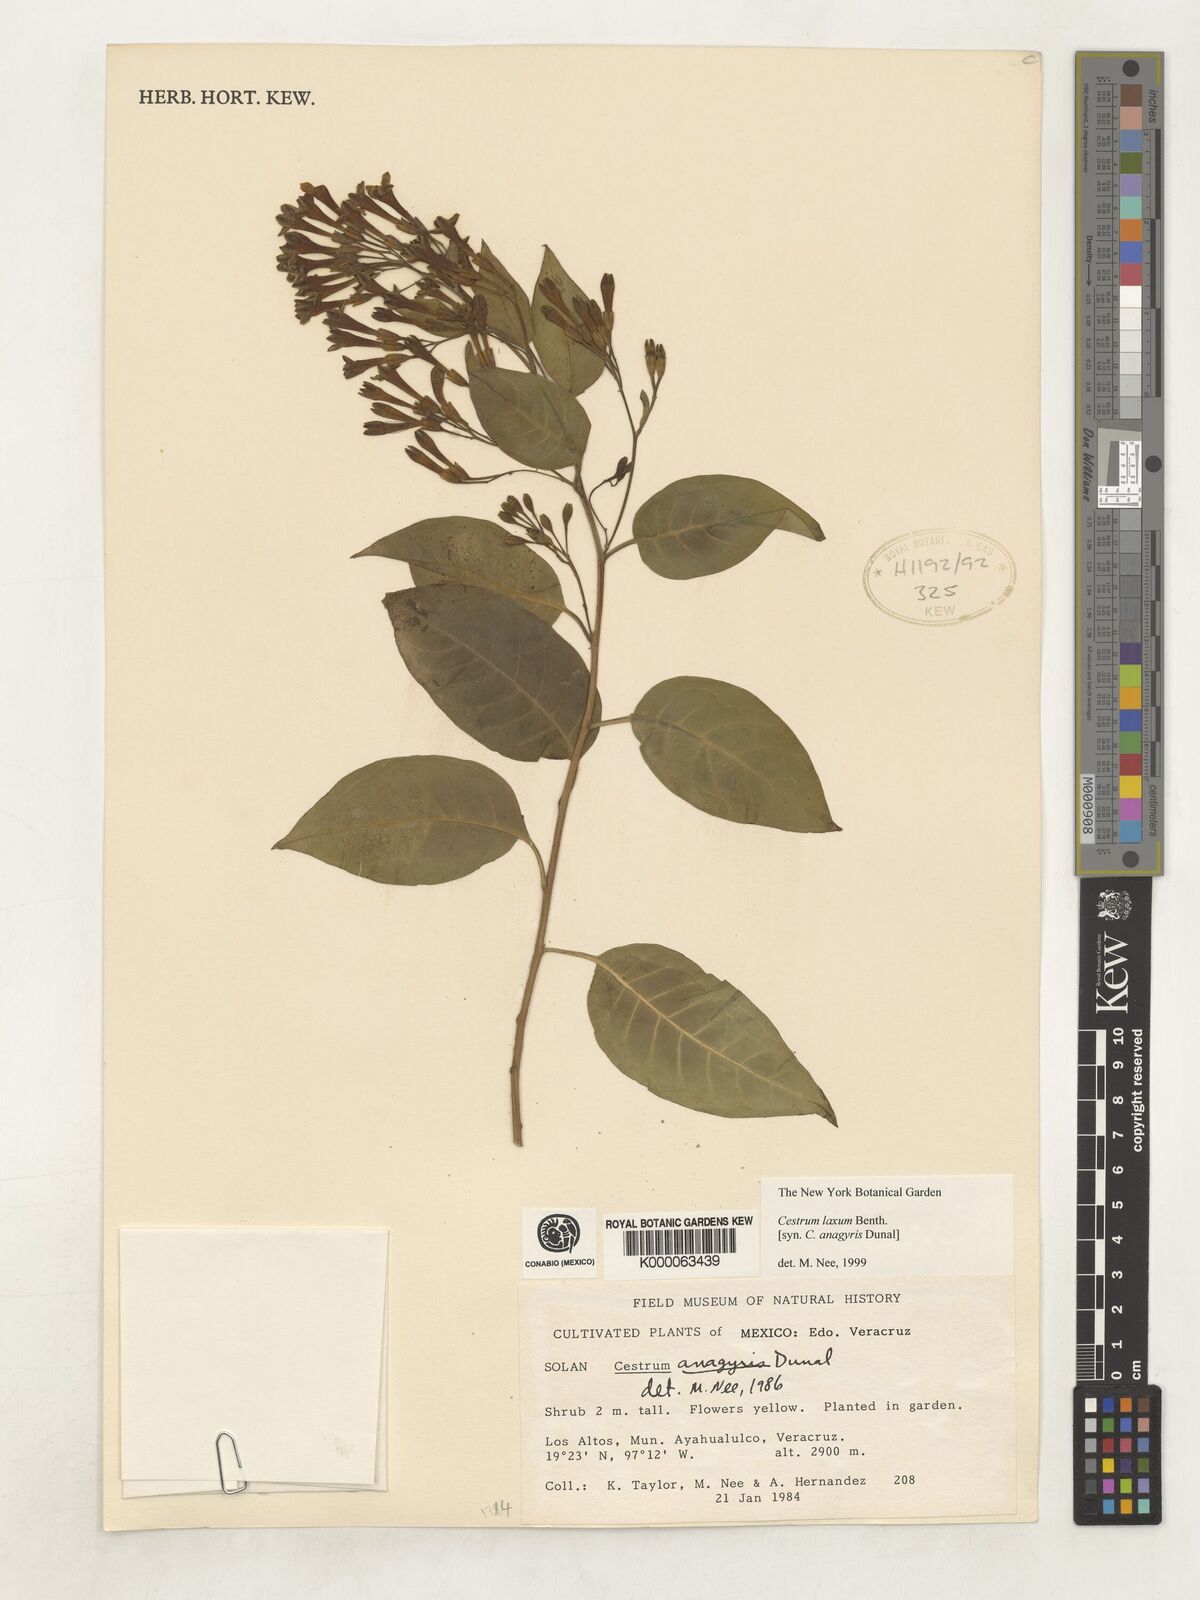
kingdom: Plantae
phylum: Tracheophyta
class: Magnoliopsida
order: Solanales
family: Solanaceae
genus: Cestrum
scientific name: Cestrum laxum
